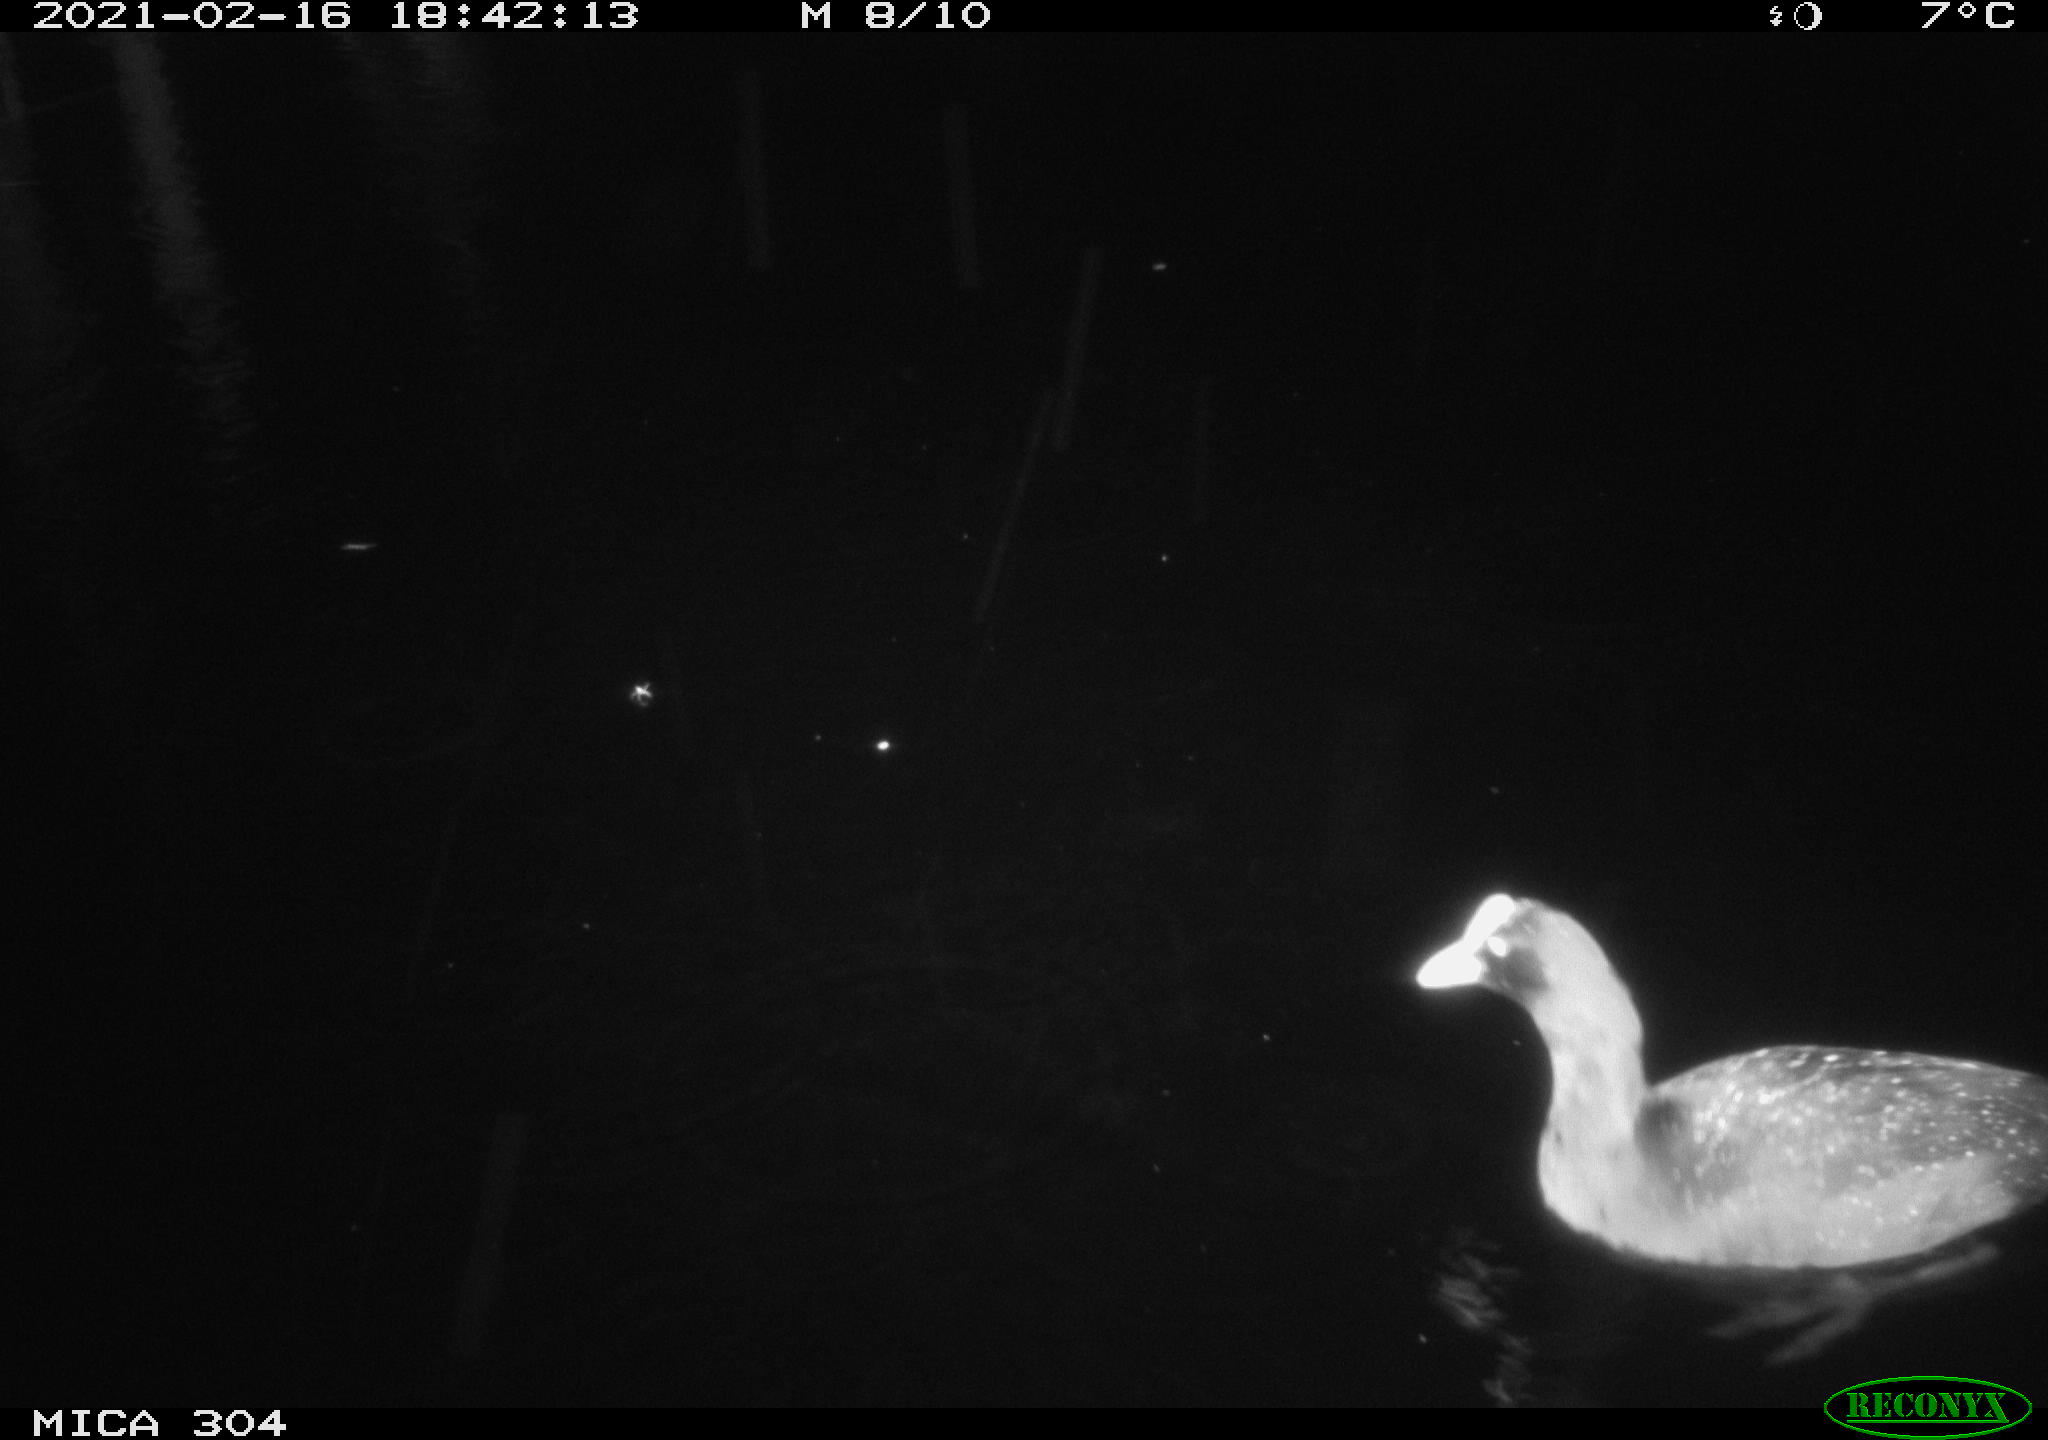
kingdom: Animalia
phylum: Chordata
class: Aves
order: Gruiformes
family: Rallidae
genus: Fulica
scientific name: Fulica atra
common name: Eurasian coot
